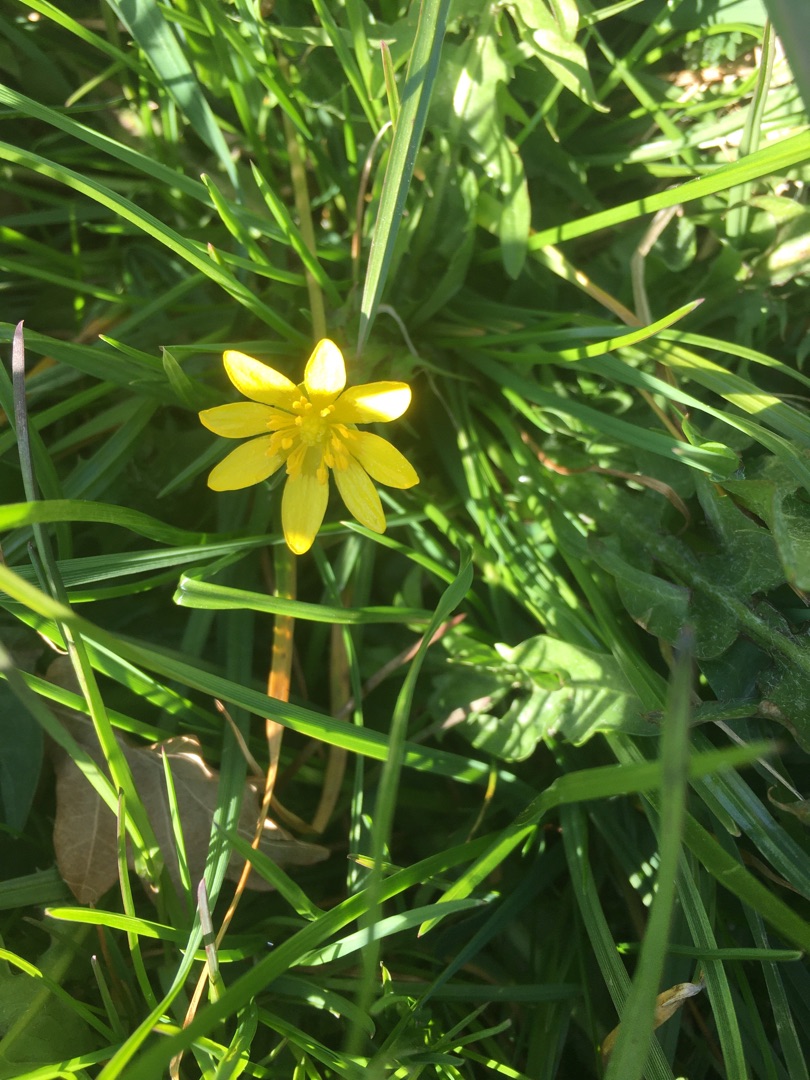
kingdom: Plantae
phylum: Tracheophyta
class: Magnoliopsida
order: Ranunculales
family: Ranunculaceae
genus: Ficaria
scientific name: Ficaria verna
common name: Vorterod
